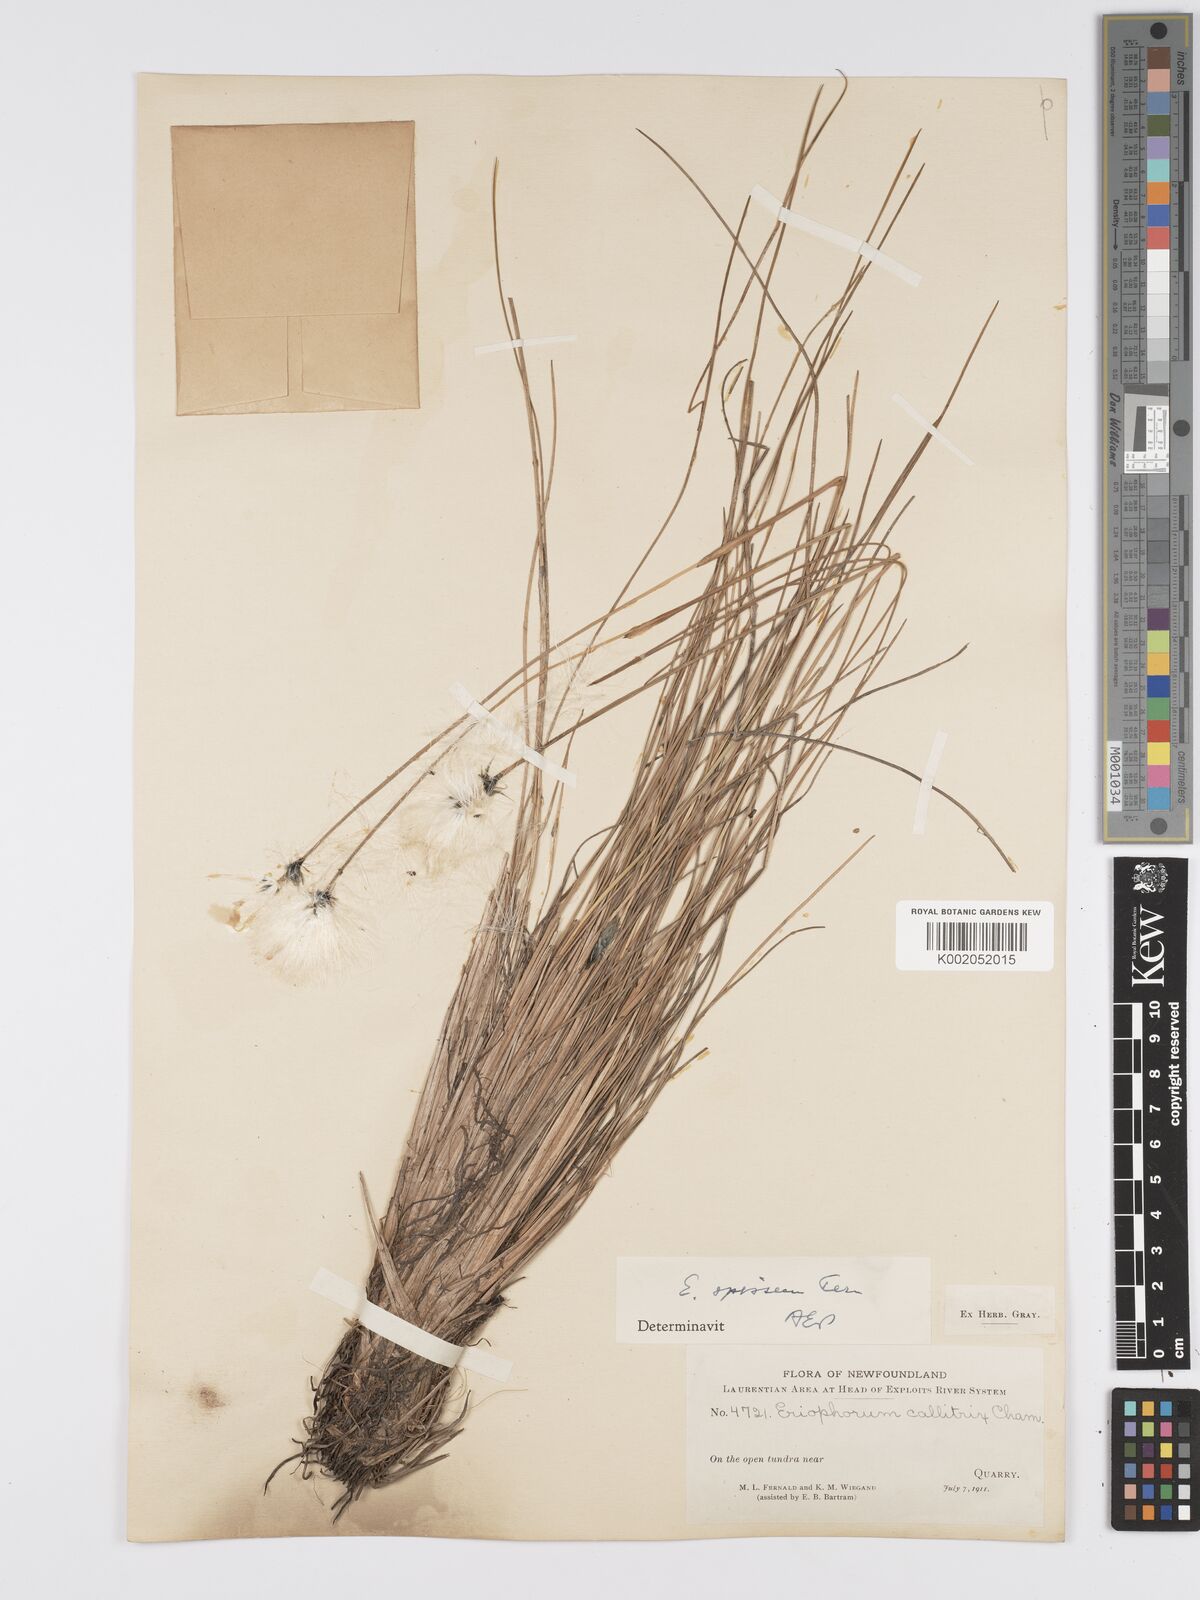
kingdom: Plantae
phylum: Tracheophyta
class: Liliopsida
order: Poales
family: Cyperaceae
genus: Eriophorum
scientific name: Eriophorum vaginatum
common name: Hare's-tail cottongrass
